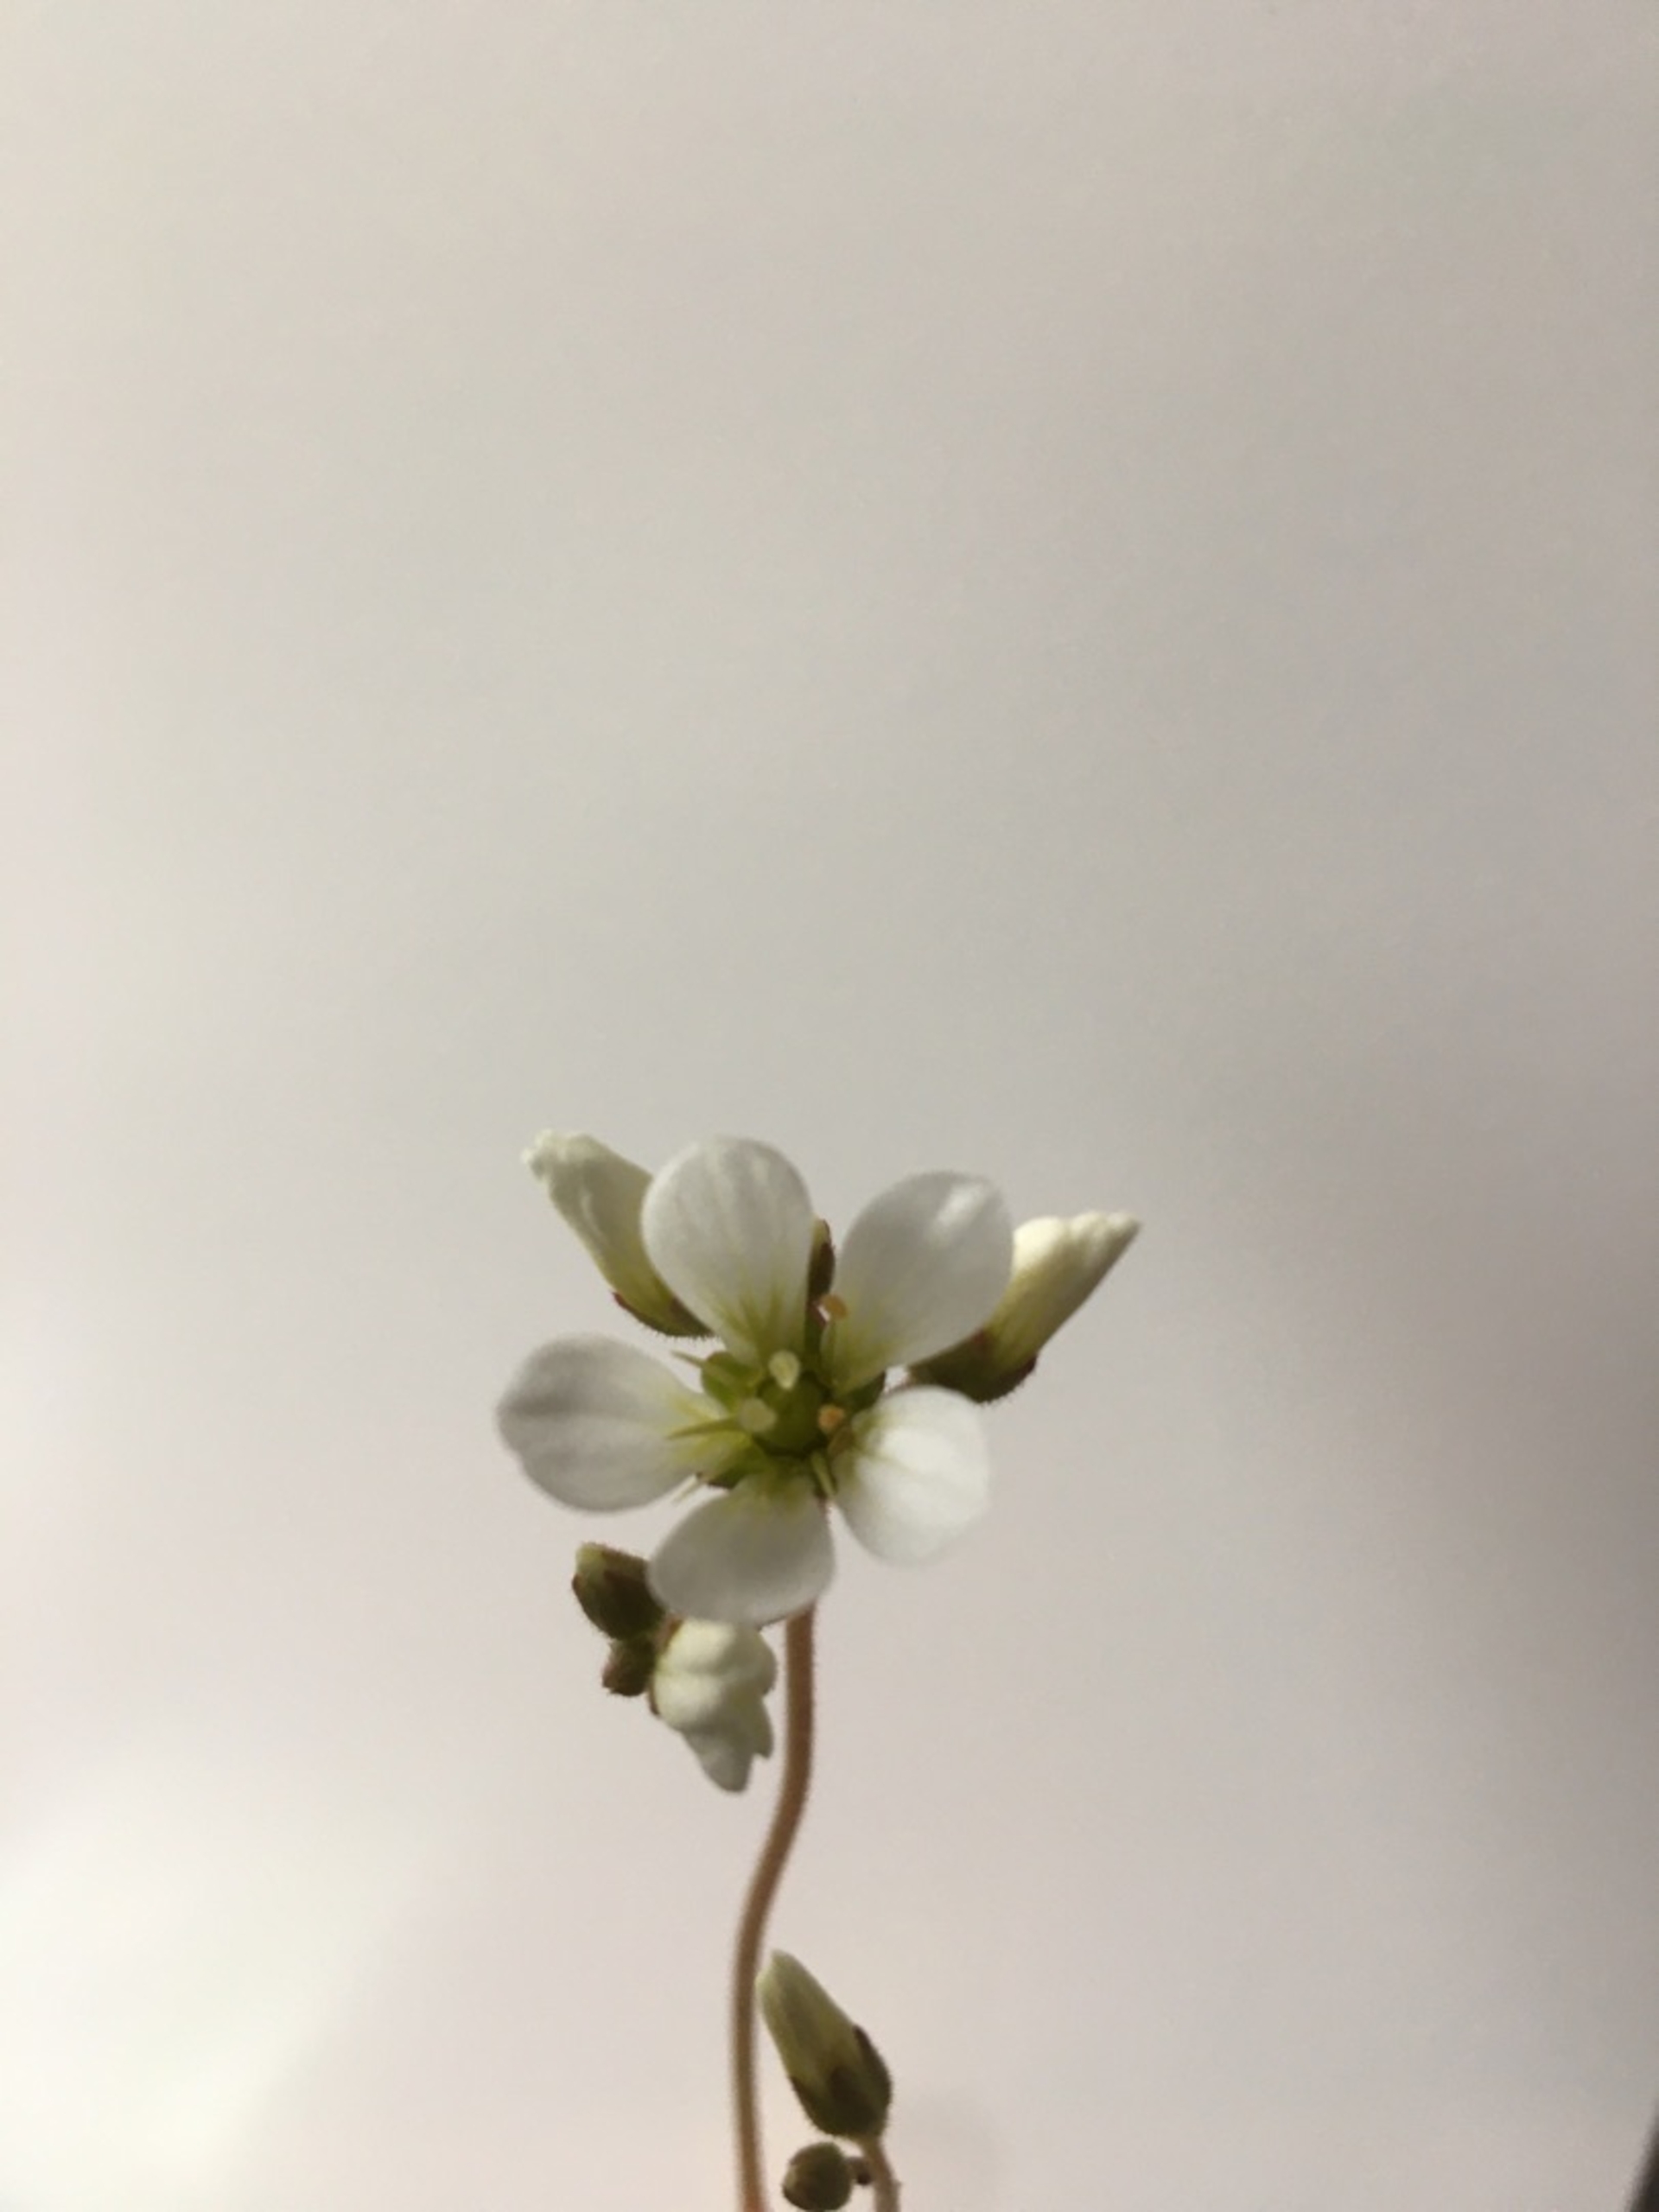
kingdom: Plantae
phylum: Tracheophyta
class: Magnoliopsida
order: Saxifragales
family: Saxifragaceae
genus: Saxifraga
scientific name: Saxifraga granulata
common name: Kornet stenbræk
